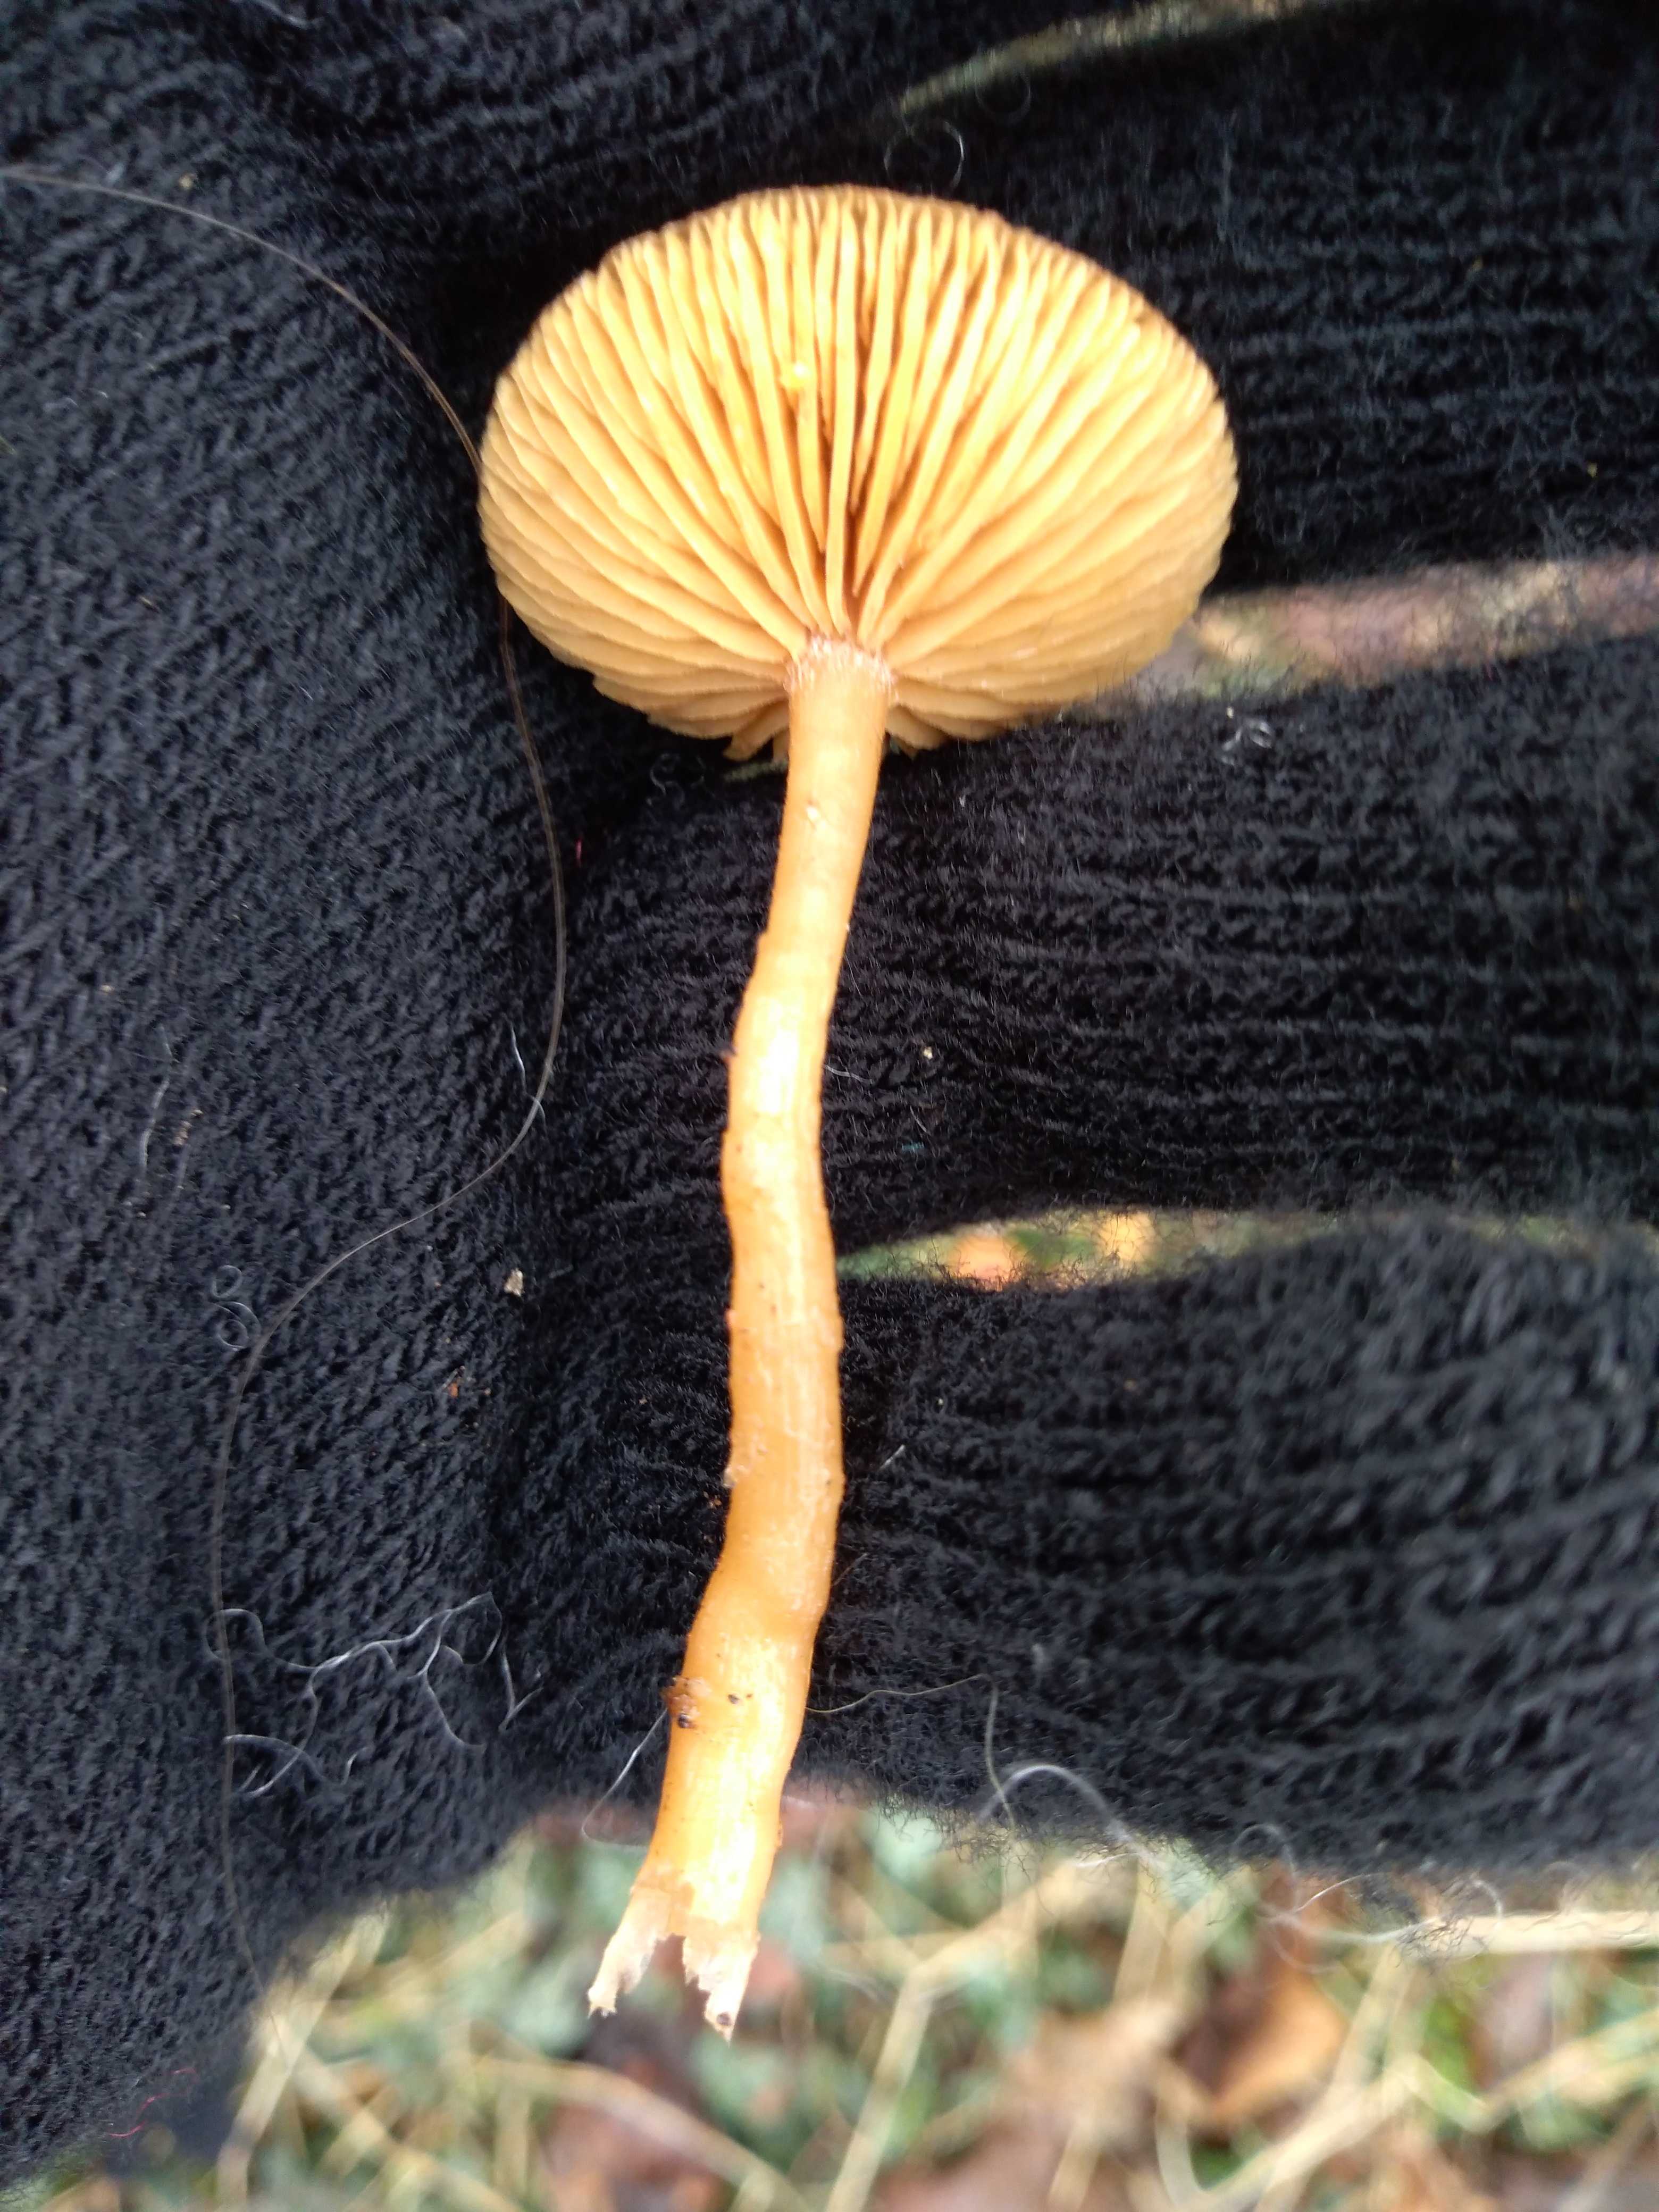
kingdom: Fungi
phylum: Basidiomycota
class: Agaricomycetes
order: Agaricales
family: Tubariaceae
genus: Tubaria
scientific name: Tubaria furfuracea
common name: kliddet fnughat
